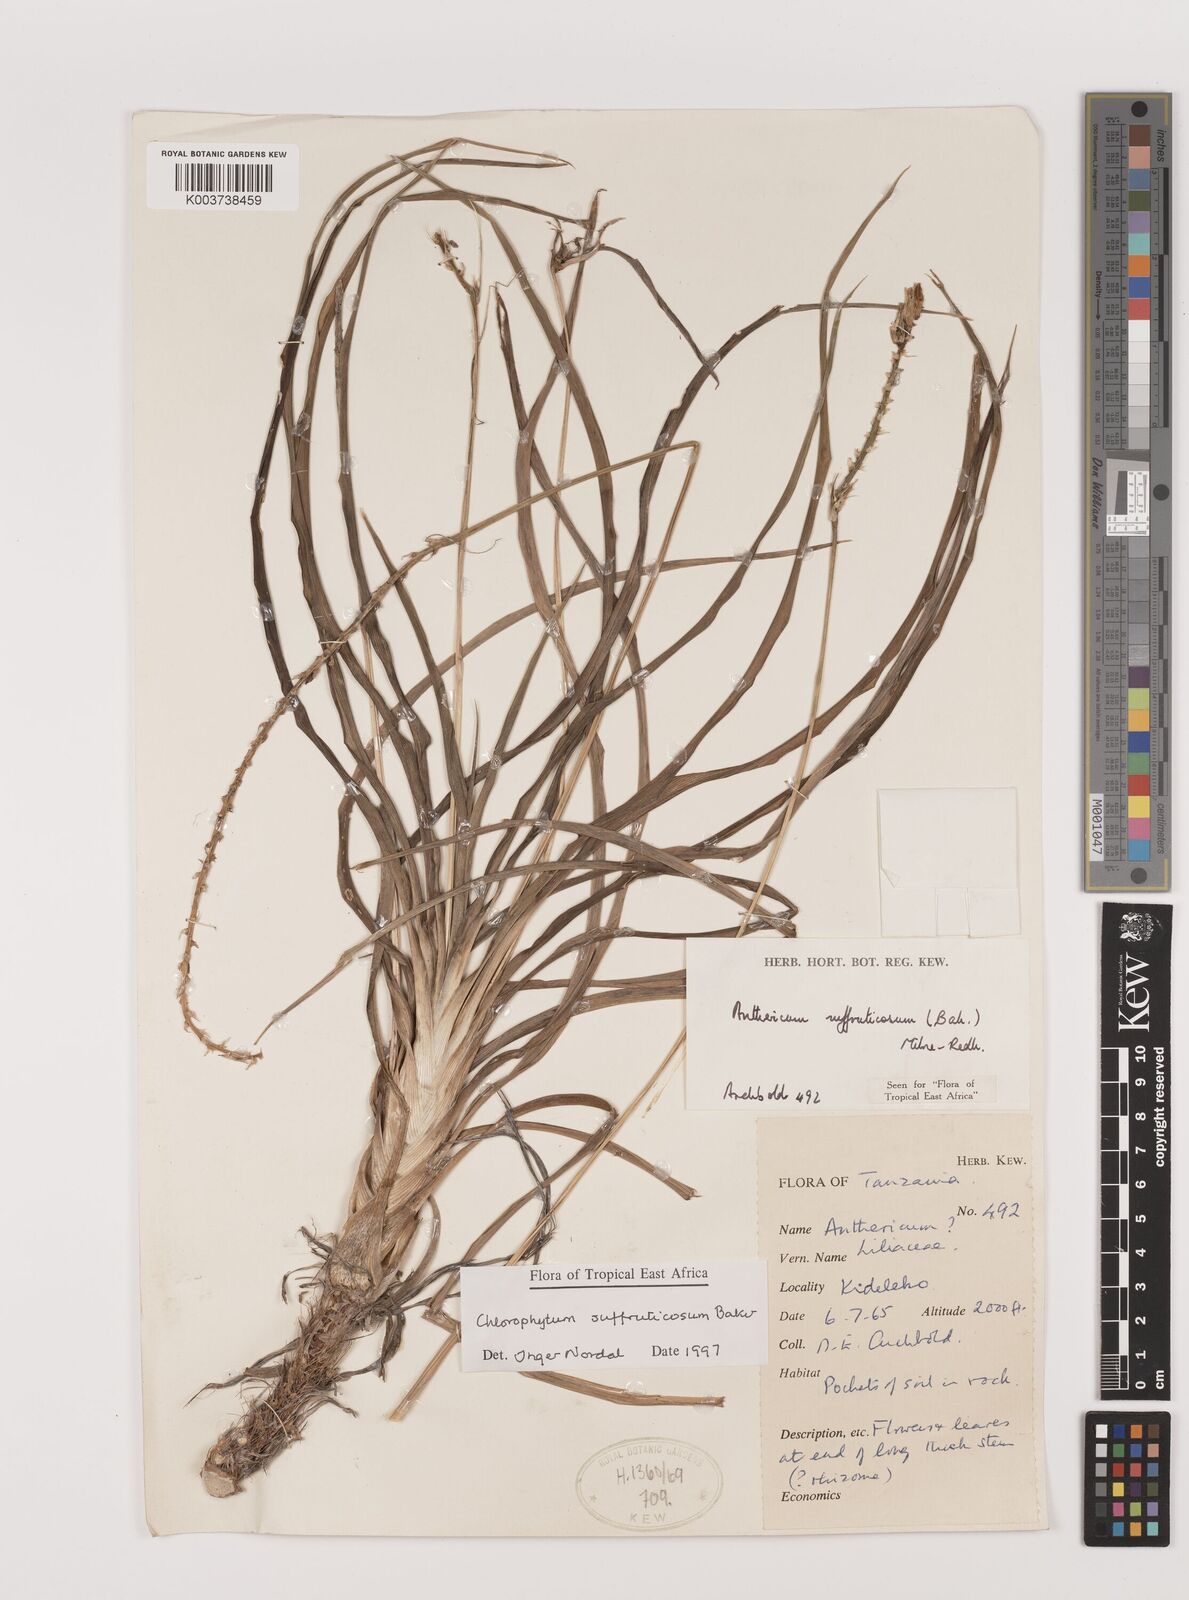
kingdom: Plantae
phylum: Tracheophyta
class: Liliopsida
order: Asparagales
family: Asparagaceae
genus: Chlorophytum
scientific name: Chlorophytum suffruticosum
